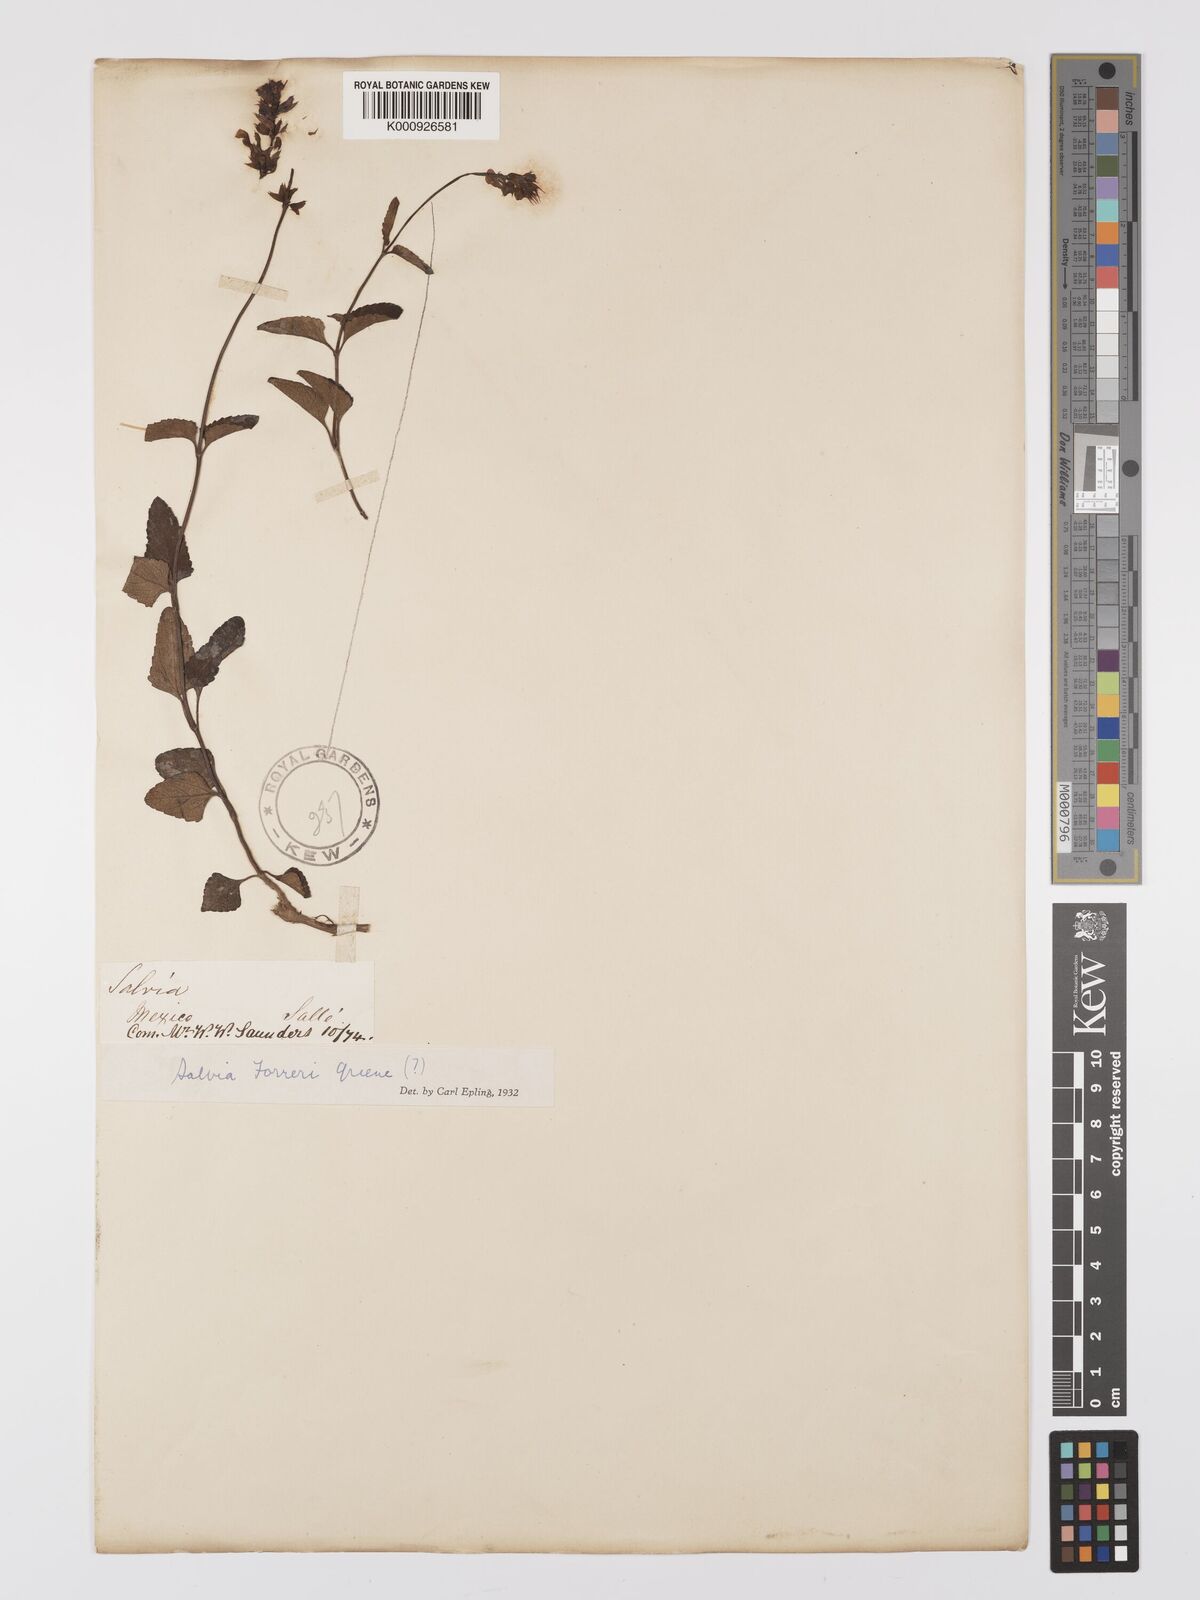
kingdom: Plantae
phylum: Tracheophyta
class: Magnoliopsida
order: Lamiales
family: Lamiaceae
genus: Salvia
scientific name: Salvia prunelloides
